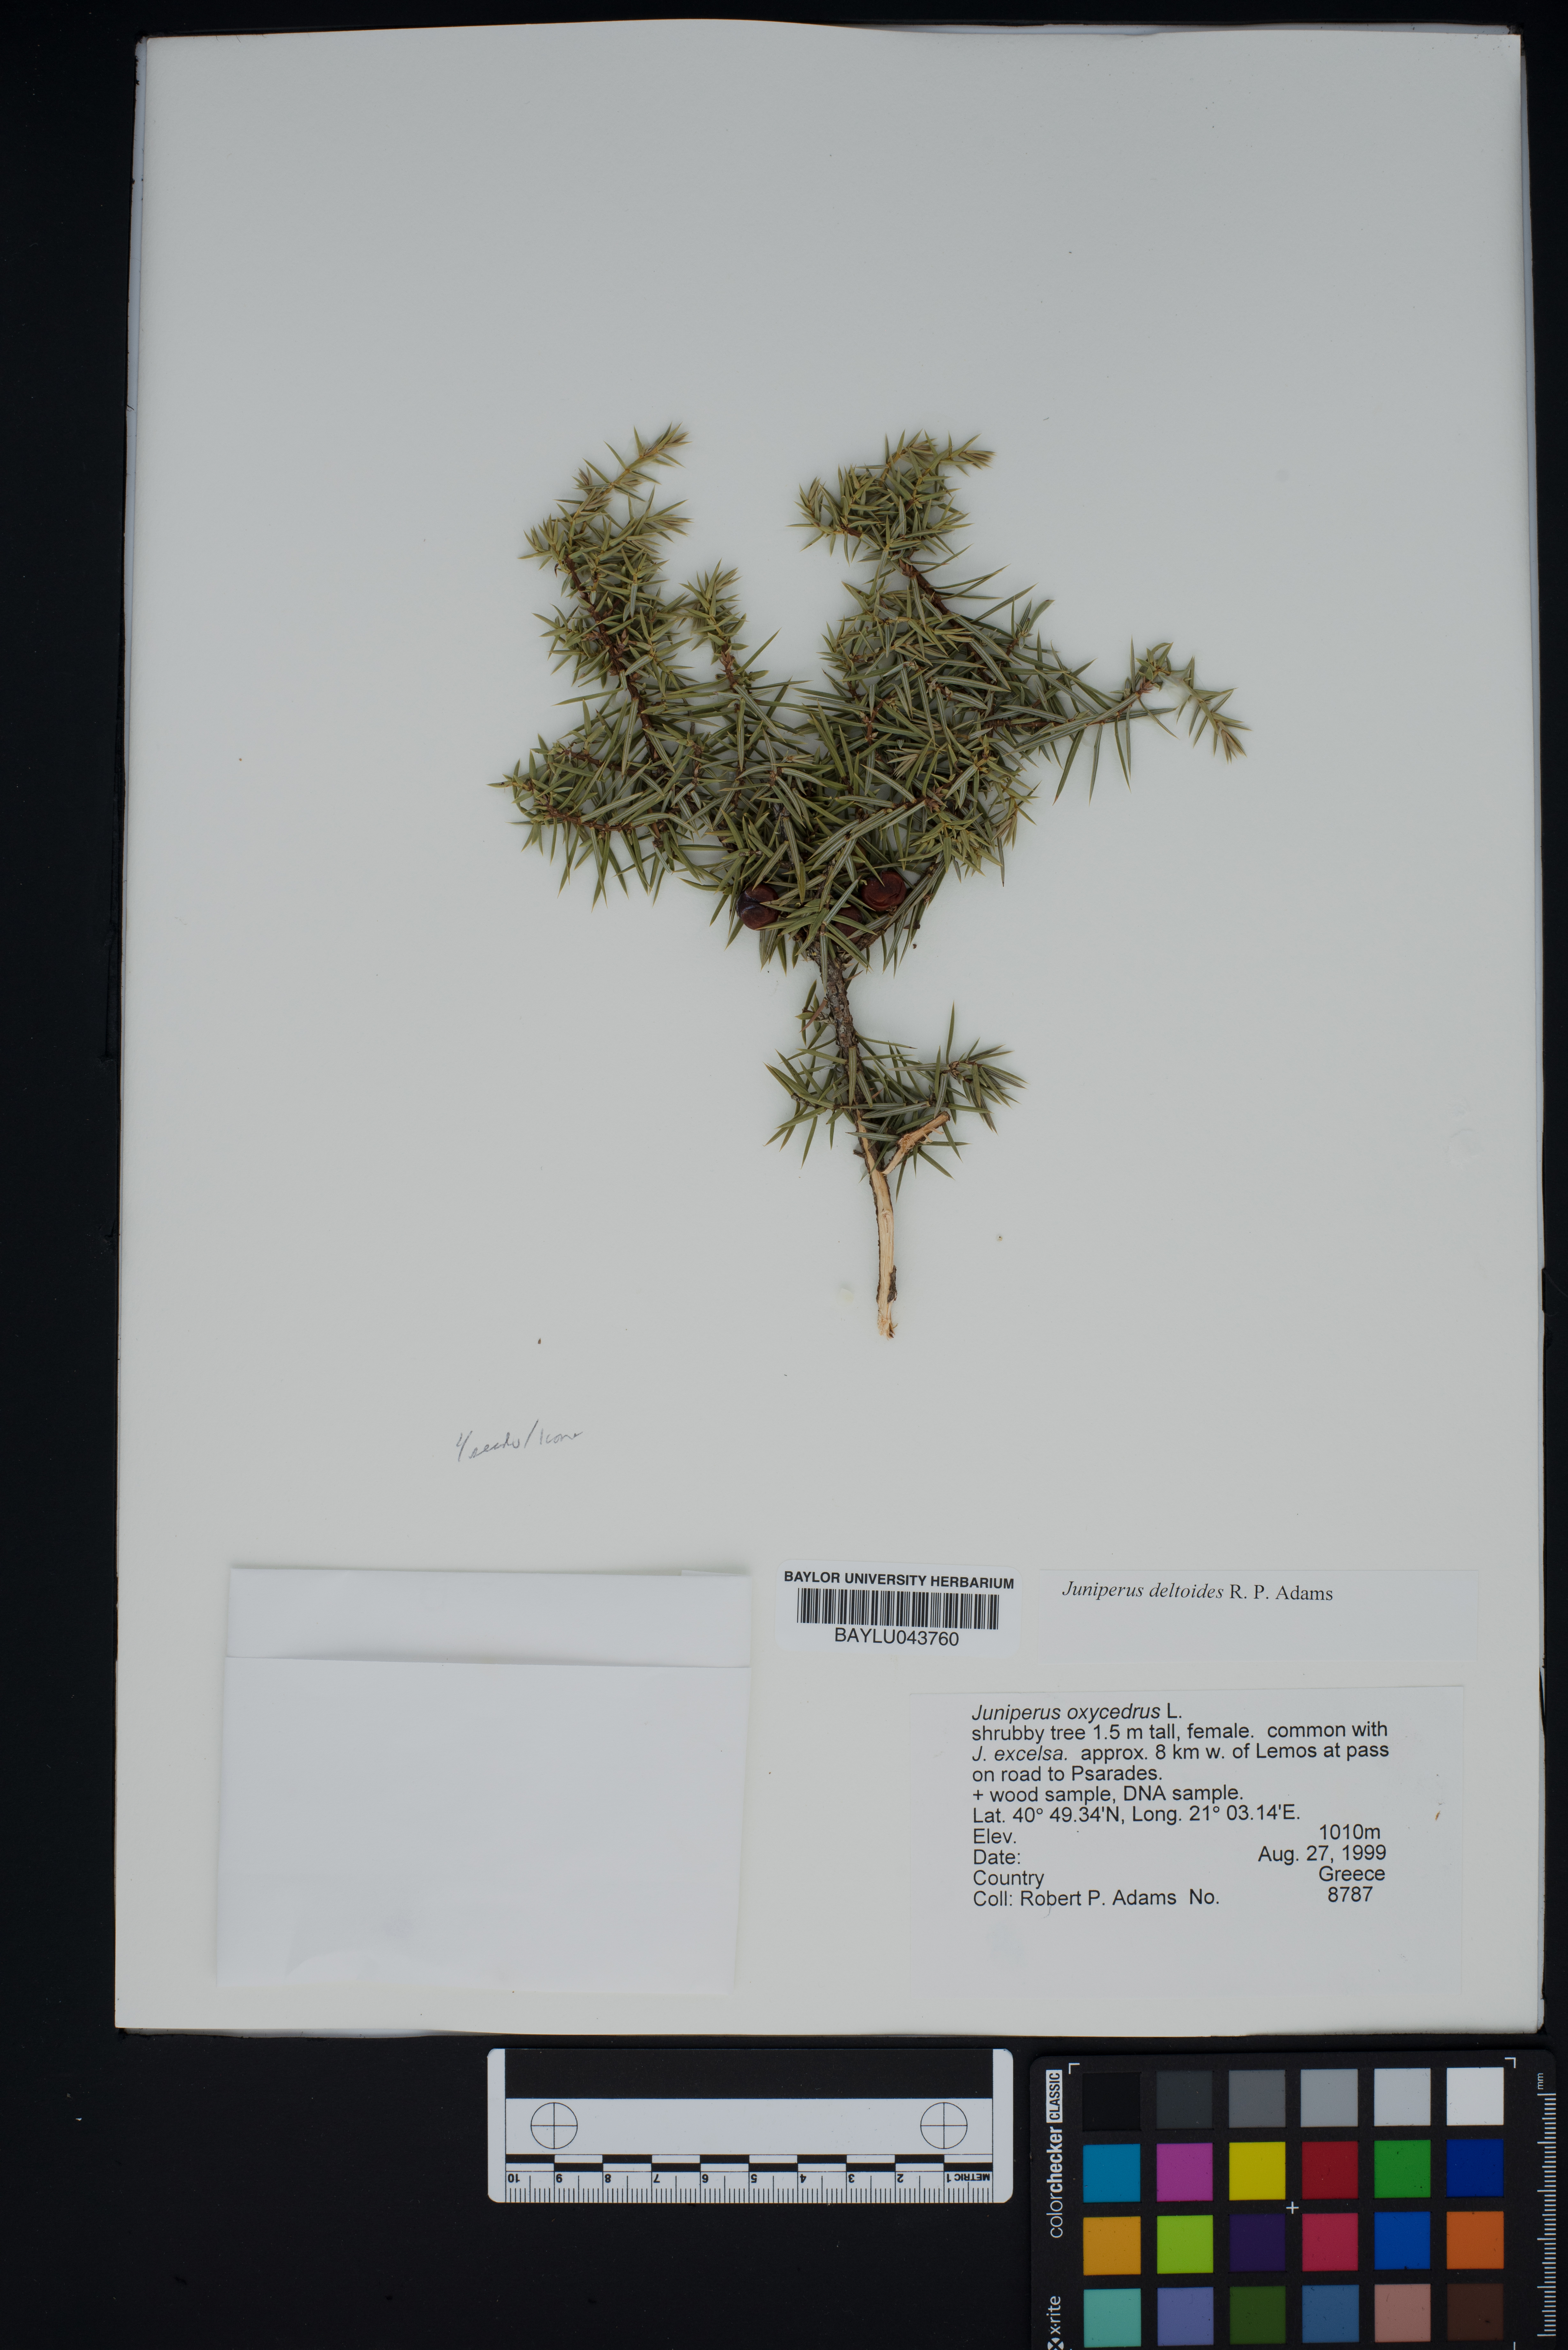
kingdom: Plantae
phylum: Tracheophyta
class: Pinopsida
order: Pinales
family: Cupressaceae
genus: Juniperus
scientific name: Juniperus oxycedrus
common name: Prickly juniper
